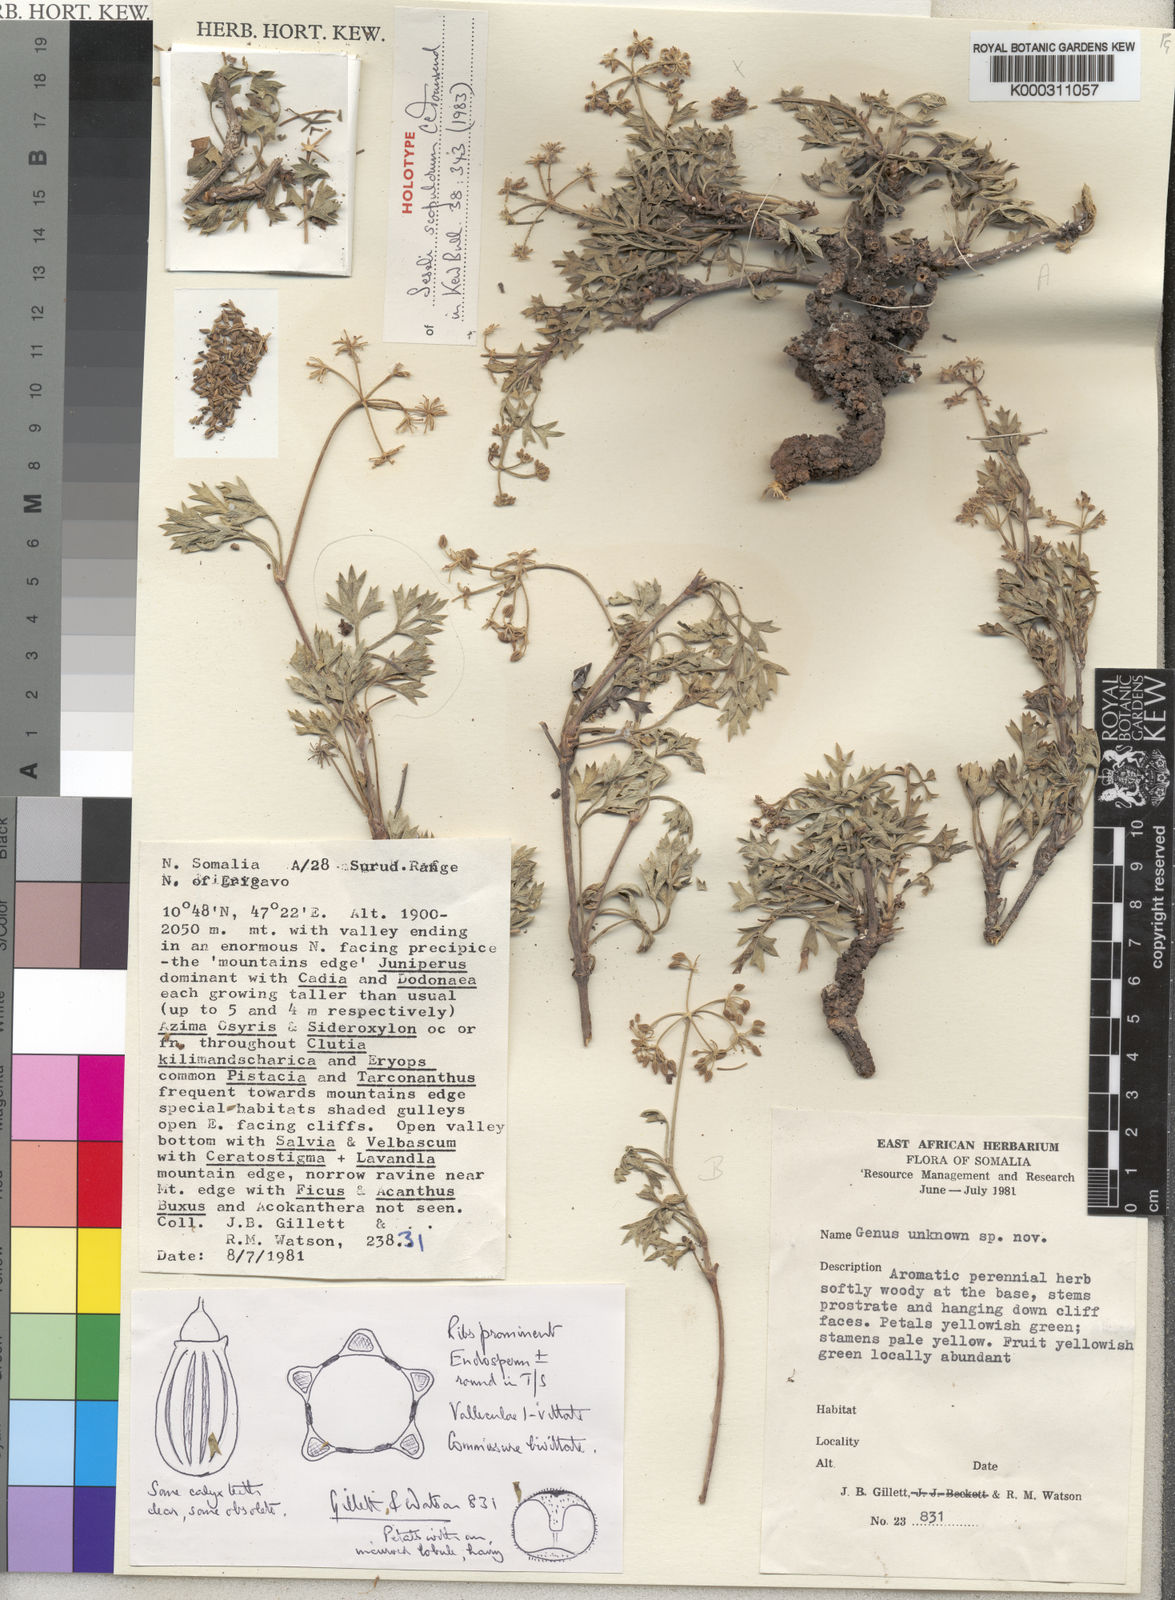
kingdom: Plantae
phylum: Tracheophyta
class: Magnoliopsida
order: Apiales
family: Apiaceae
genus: Seseli
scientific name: Seseli scopulorum
